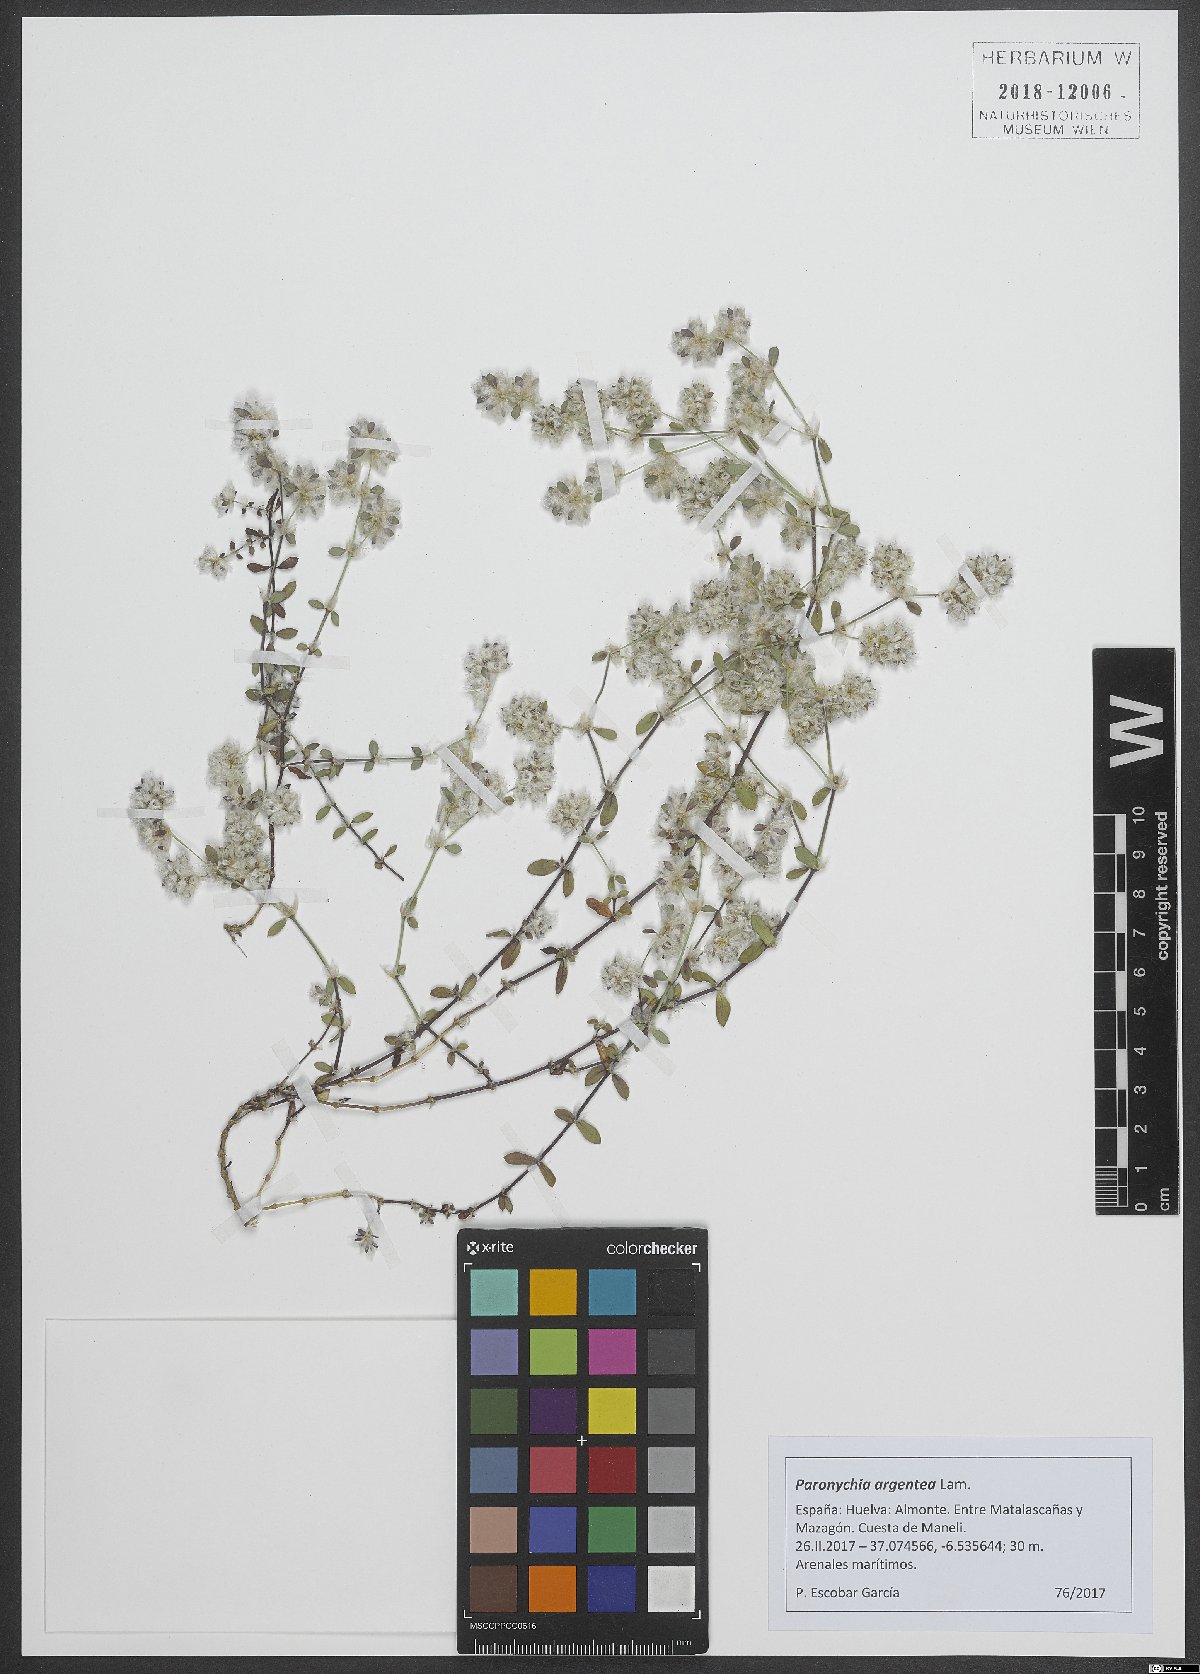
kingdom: Plantae
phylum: Tracheophyta
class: Magnoliopsida
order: Caryophyllales
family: Caryophyllaceae
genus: Paronychia
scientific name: Paronychia argentea
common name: Silver nailroot
